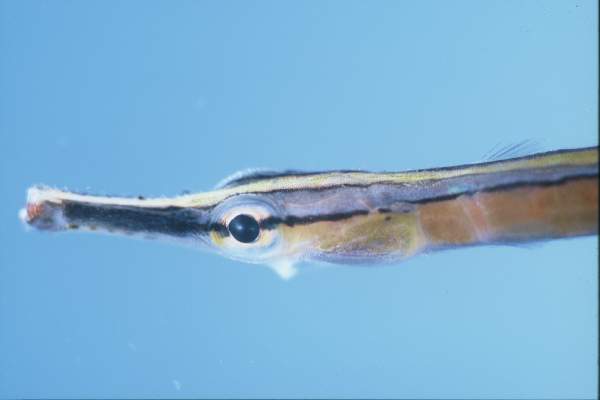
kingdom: Animalia
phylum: Chordata
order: Syngnathiformes
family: Syngnathidae
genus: Doryrhamphus
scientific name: Doryrhamphus bicarinatus
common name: Narrowstripe pipefish
